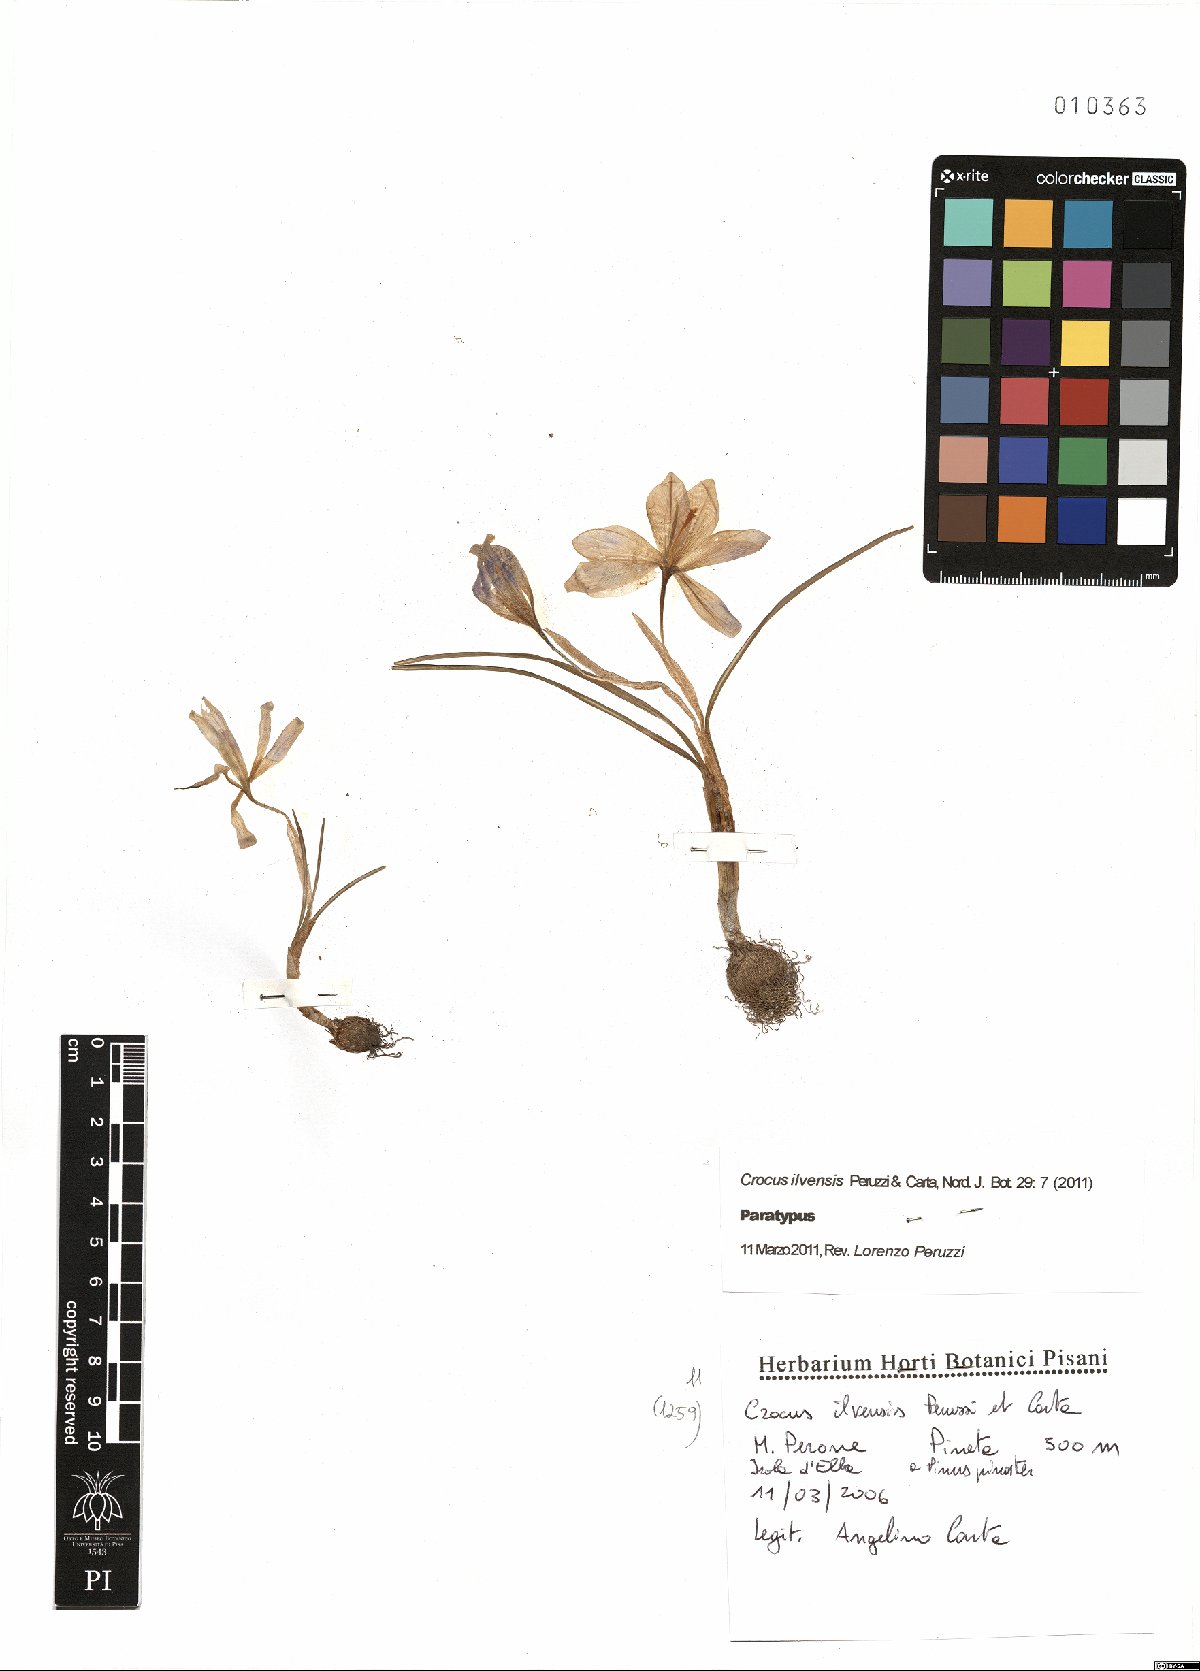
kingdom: Plantae
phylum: Tracheophyta
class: Liliopsida
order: Asparagales
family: Iridaceae
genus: Crocus
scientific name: Crocus ilvensis
